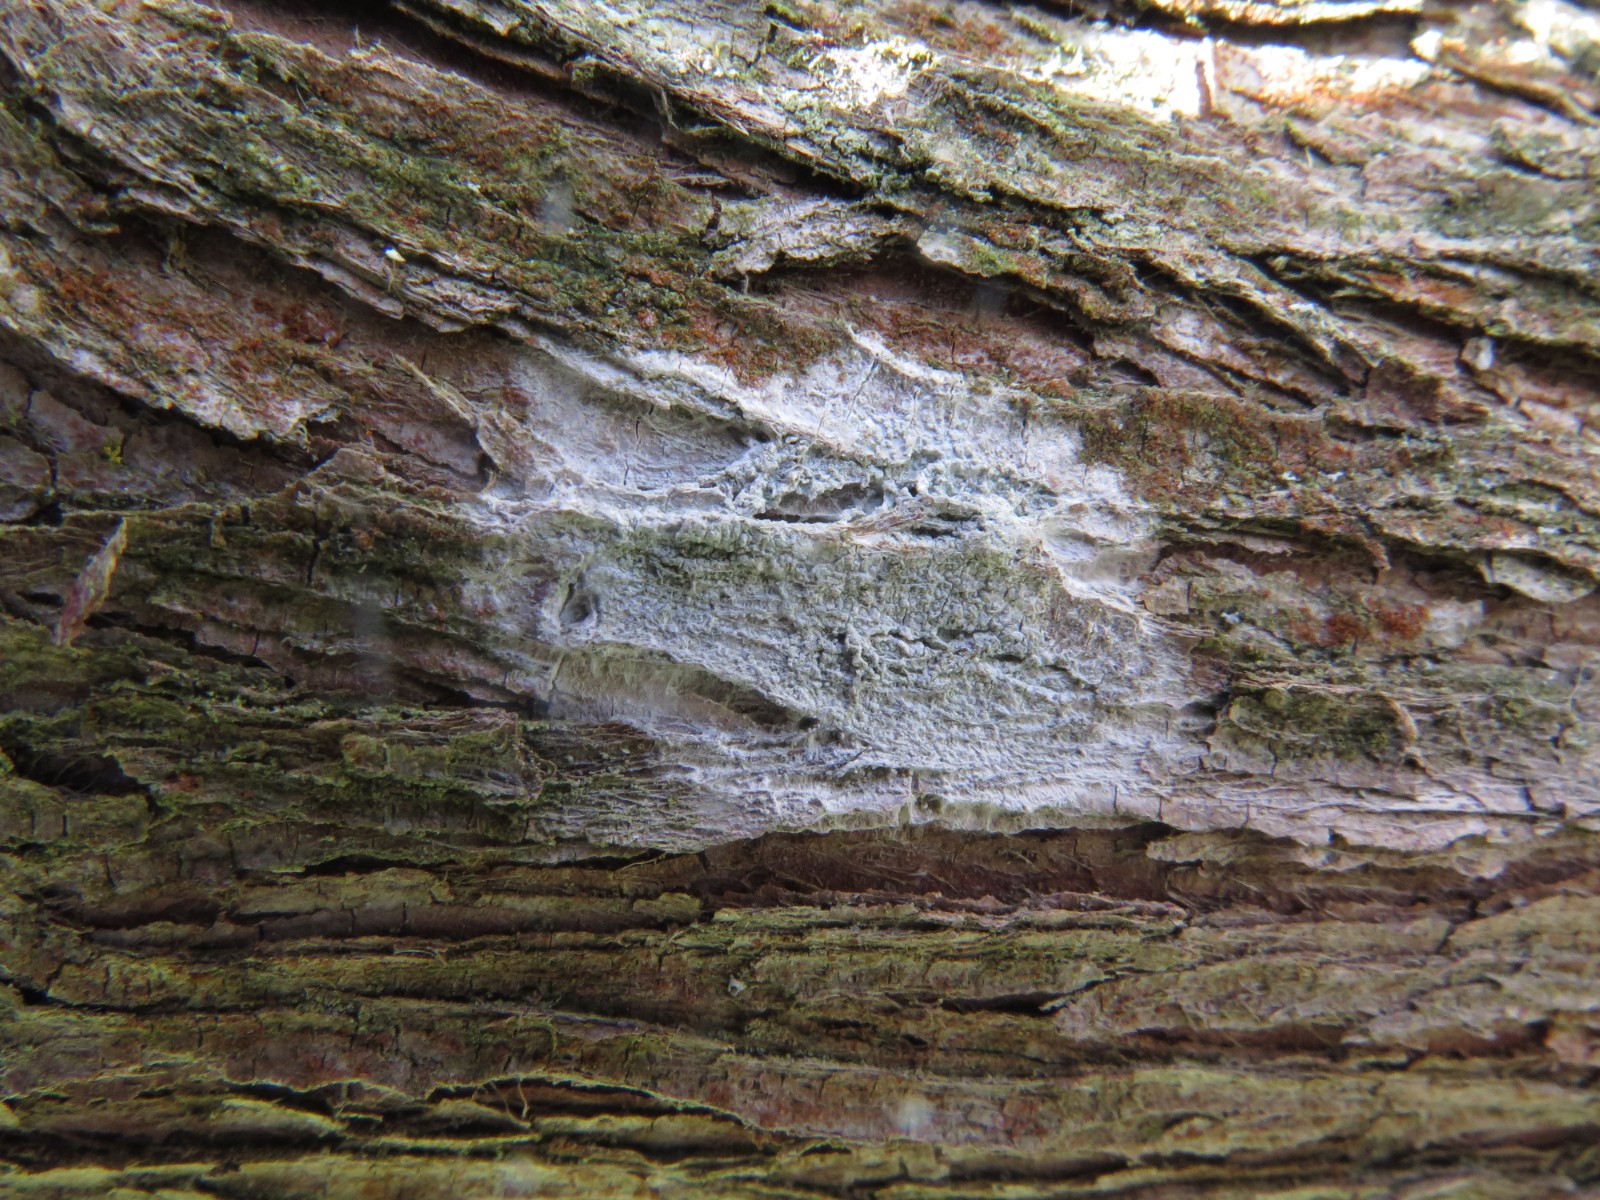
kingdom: Fungi
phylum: Ascomycota
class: Lecanoromycetes
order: Ostropales
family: Phlyctidaceae
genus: Phlyctis
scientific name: Phlyctis argena
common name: almindelig sølvlav
